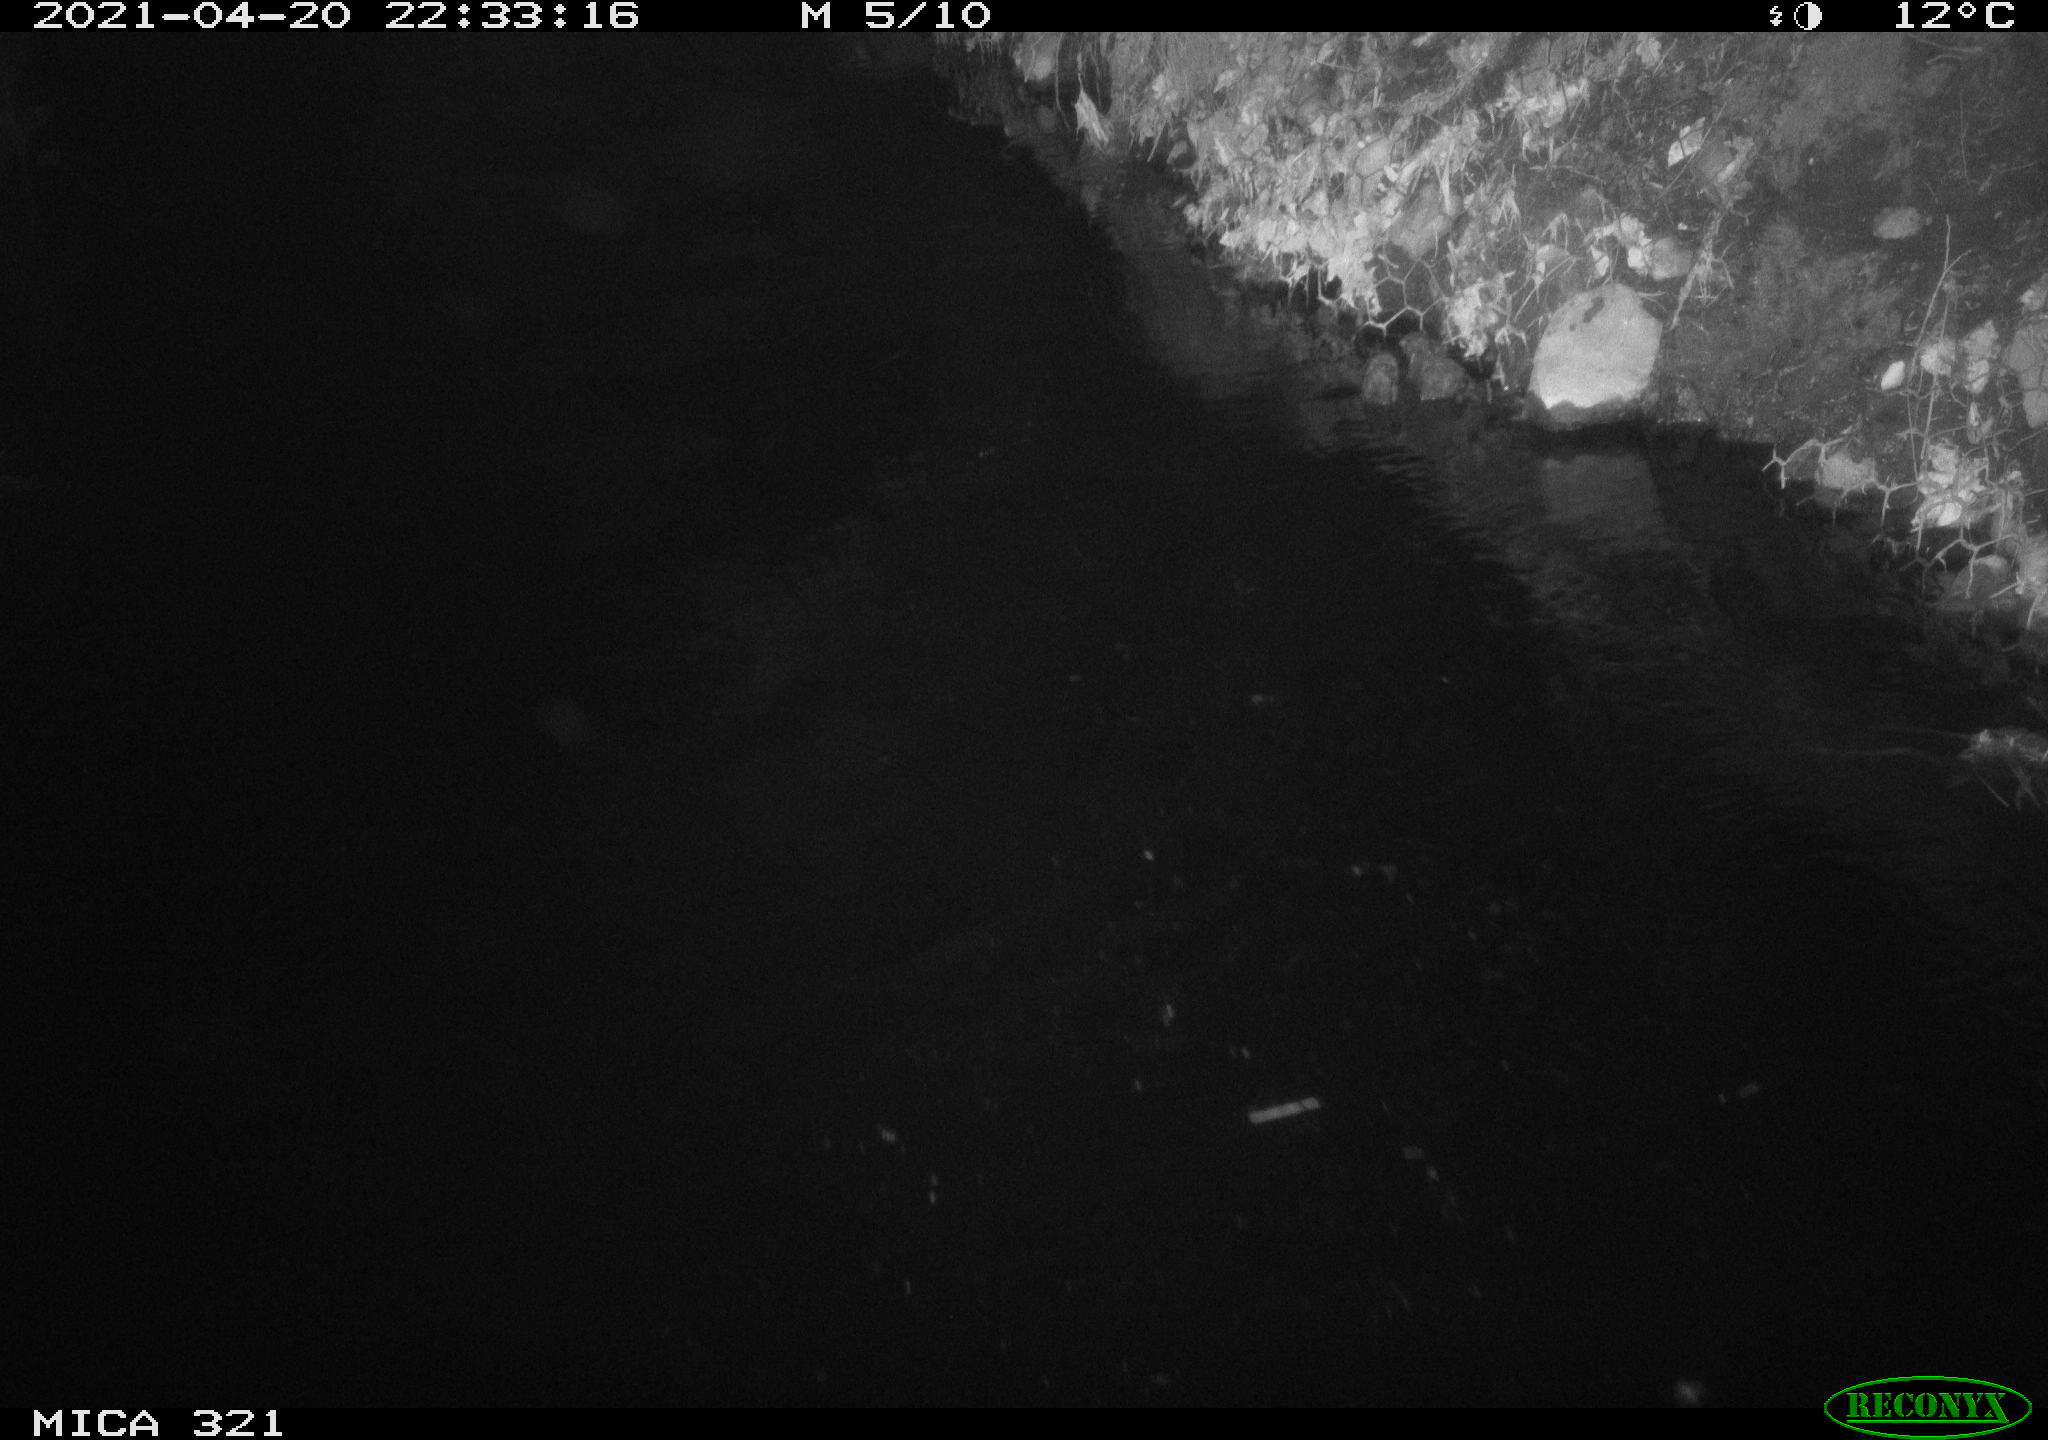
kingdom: Animalia
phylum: Chordata
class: Aves
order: Anseriformes
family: Anatidae
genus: Anas
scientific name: Anas
